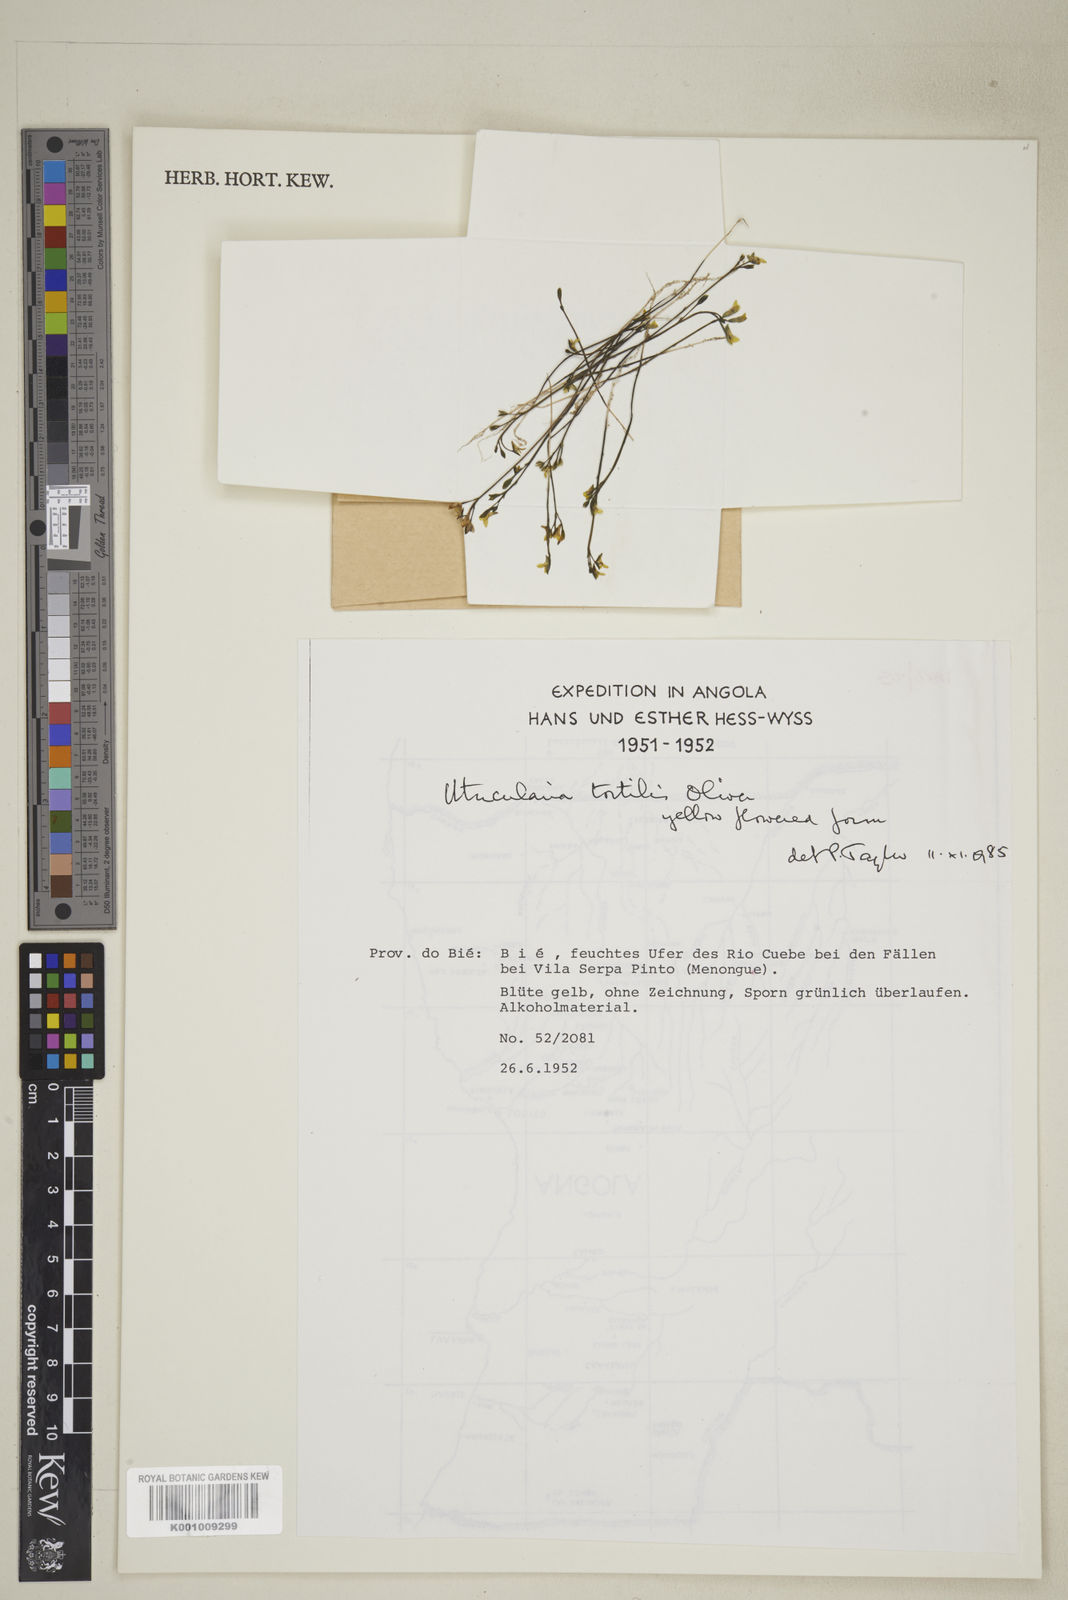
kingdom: Plantae
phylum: Tracheophyta
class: Magnoliopsida
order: Lamiales
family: Lentibulariaceae
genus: Utricularia
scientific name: Utricularia tortilis
